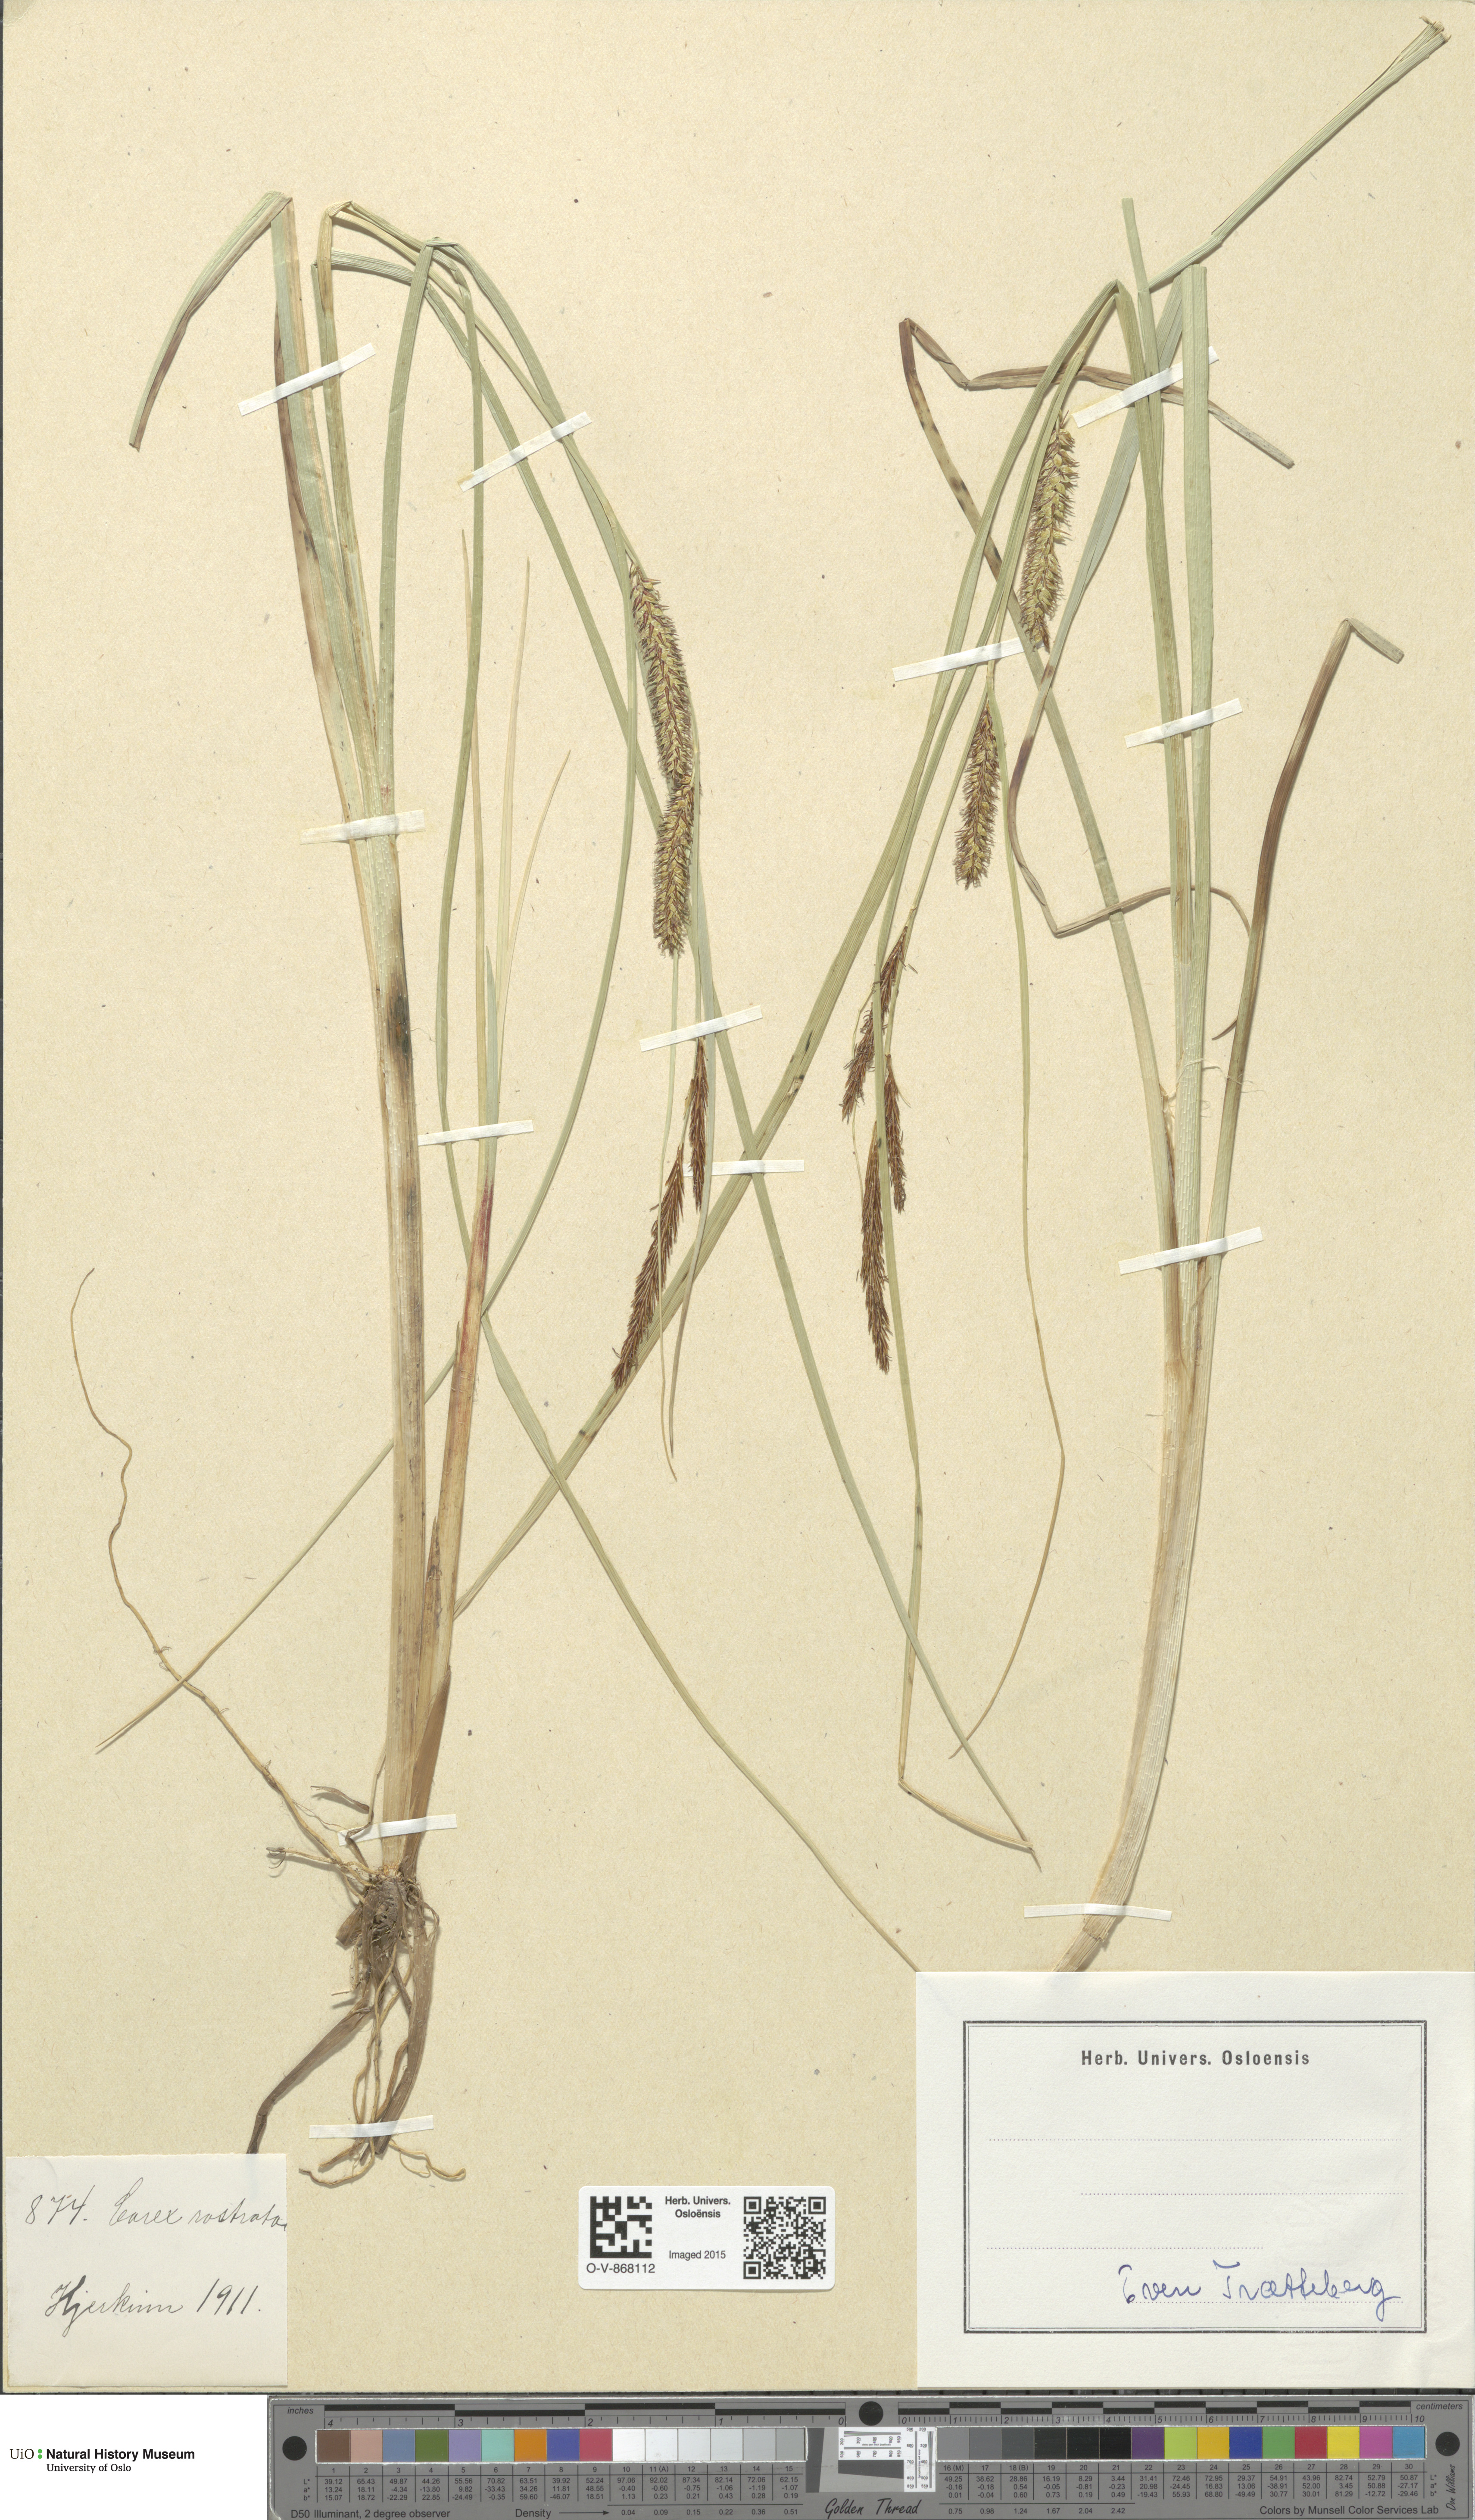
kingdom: Plantae
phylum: Tracheophyta
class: Liliopsida
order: Poales
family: Cyperaceae
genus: Carex
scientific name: Carex rostrata
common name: Bottle sedge
